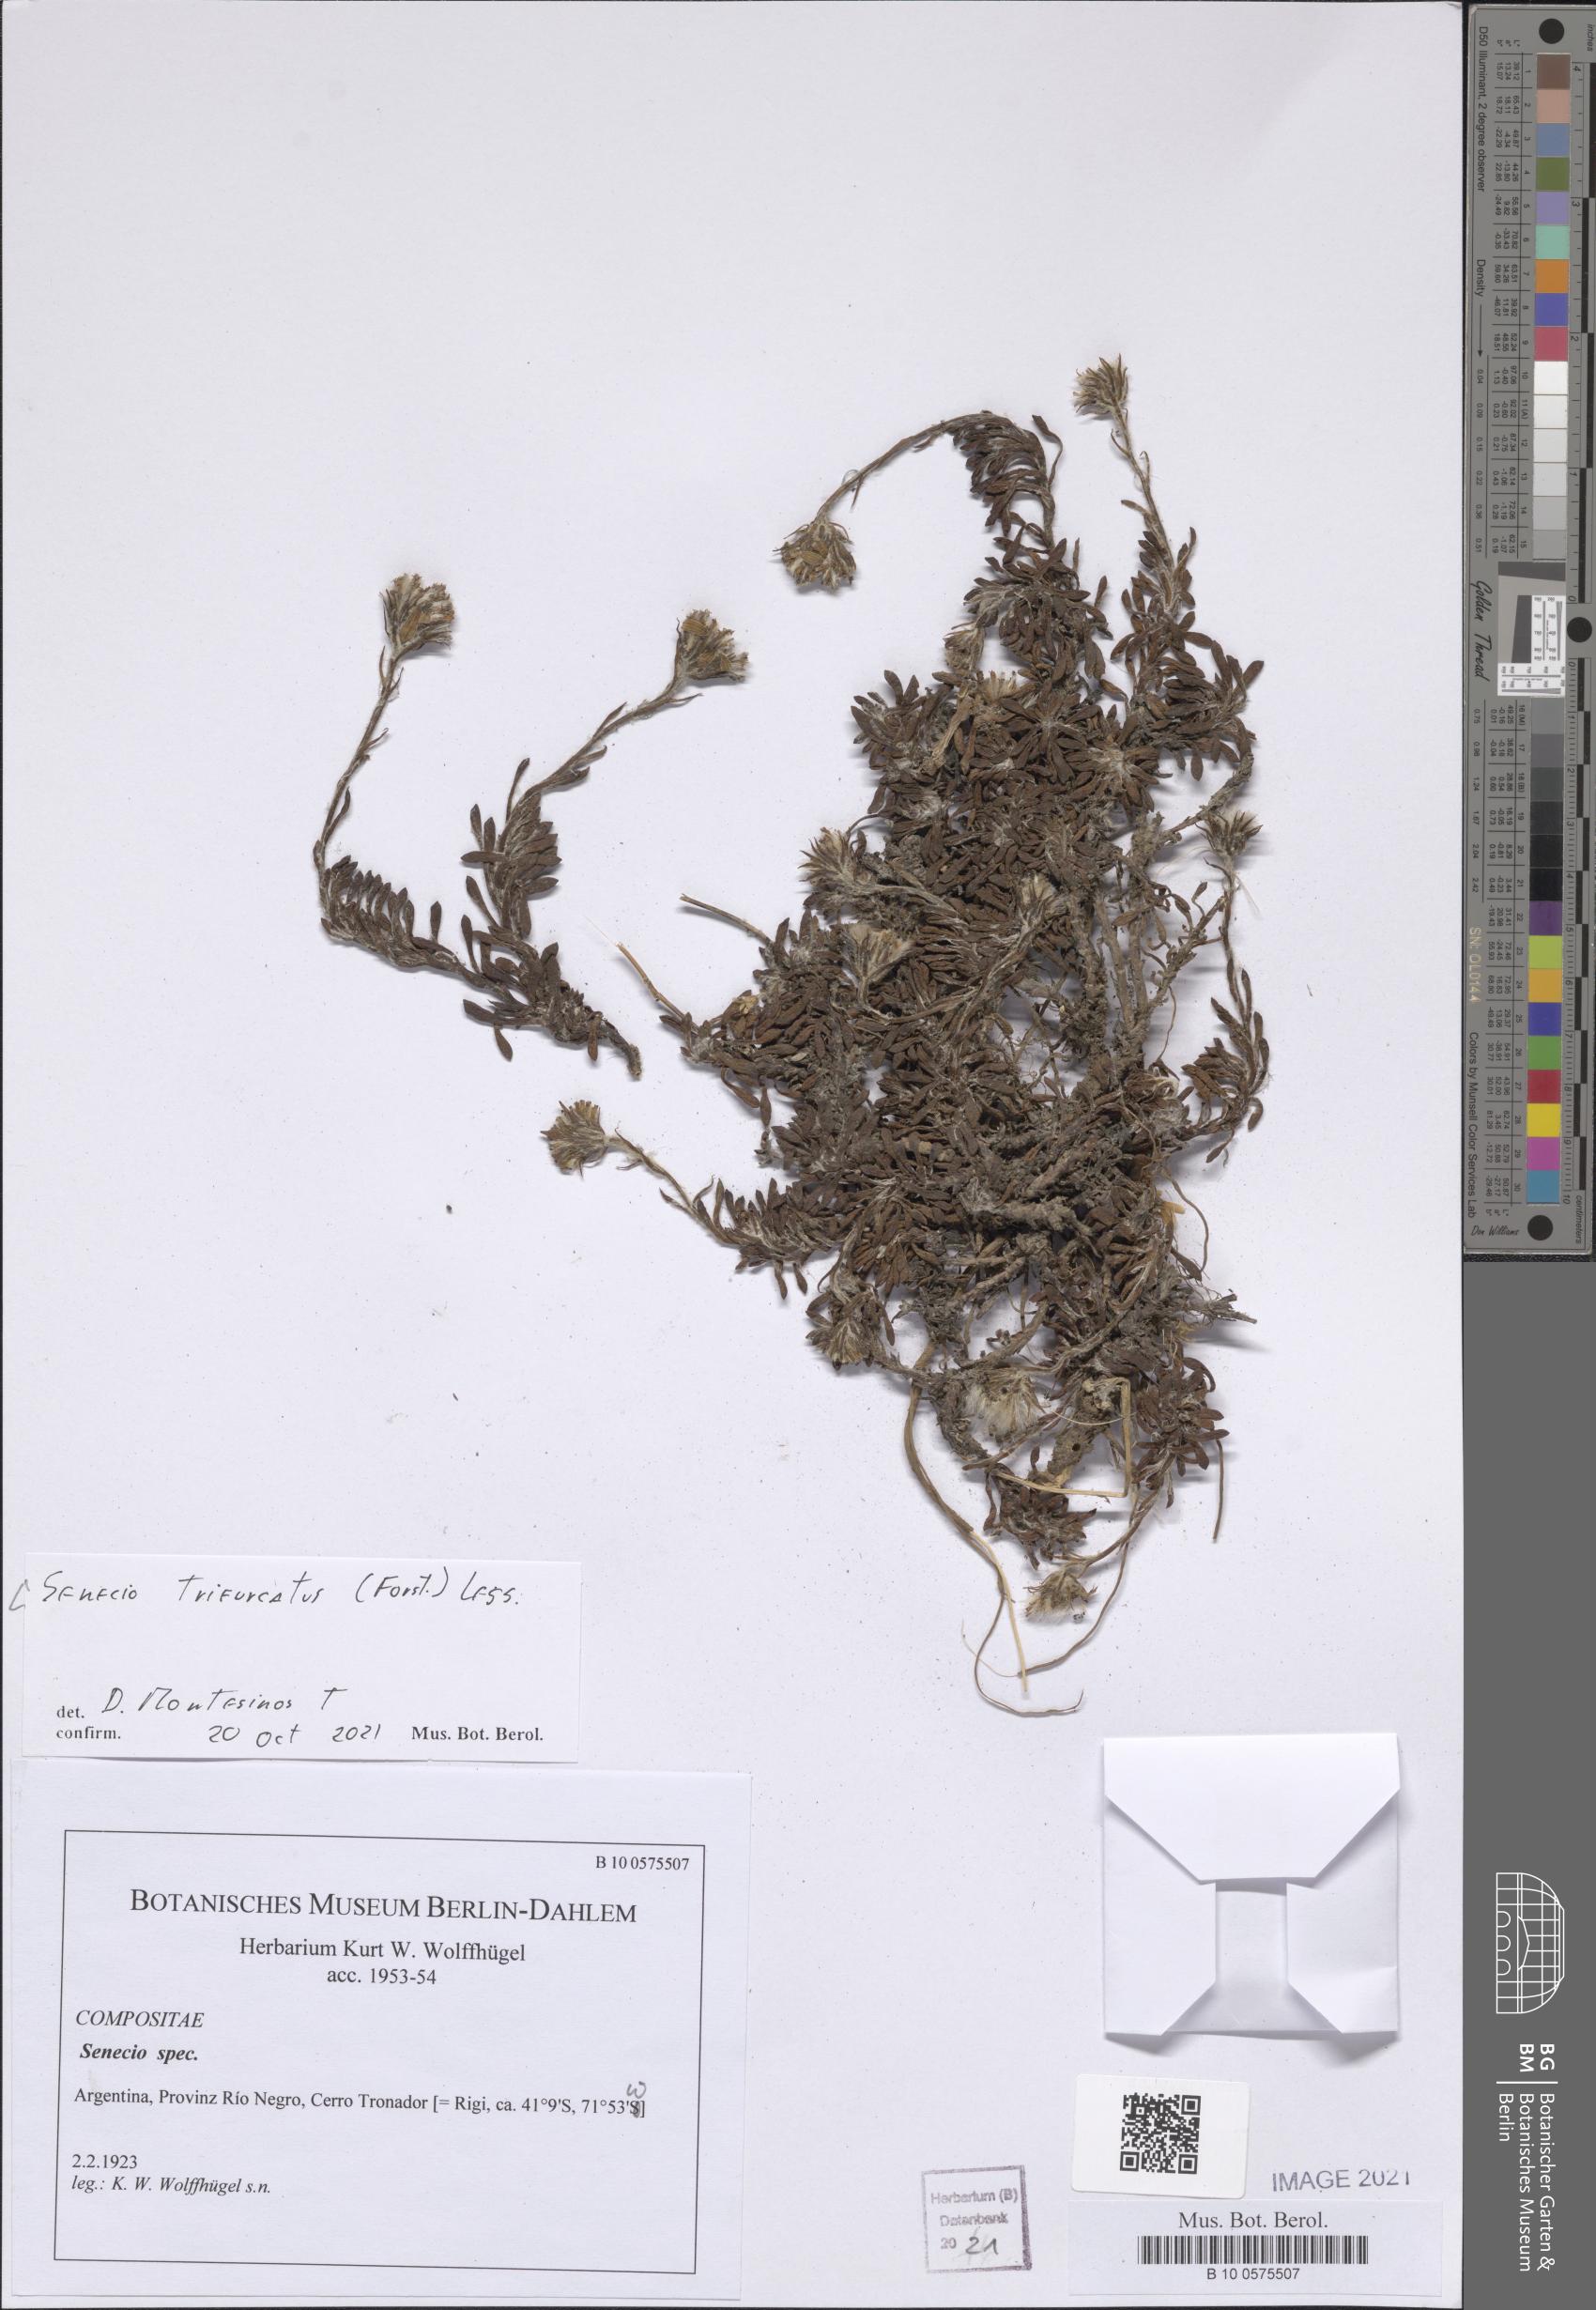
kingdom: Plantae
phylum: Tracheophyta
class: Magnoliopsida
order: Asterales
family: Asteraceae
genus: Haplosticha
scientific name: Haplosticha trifurcata
